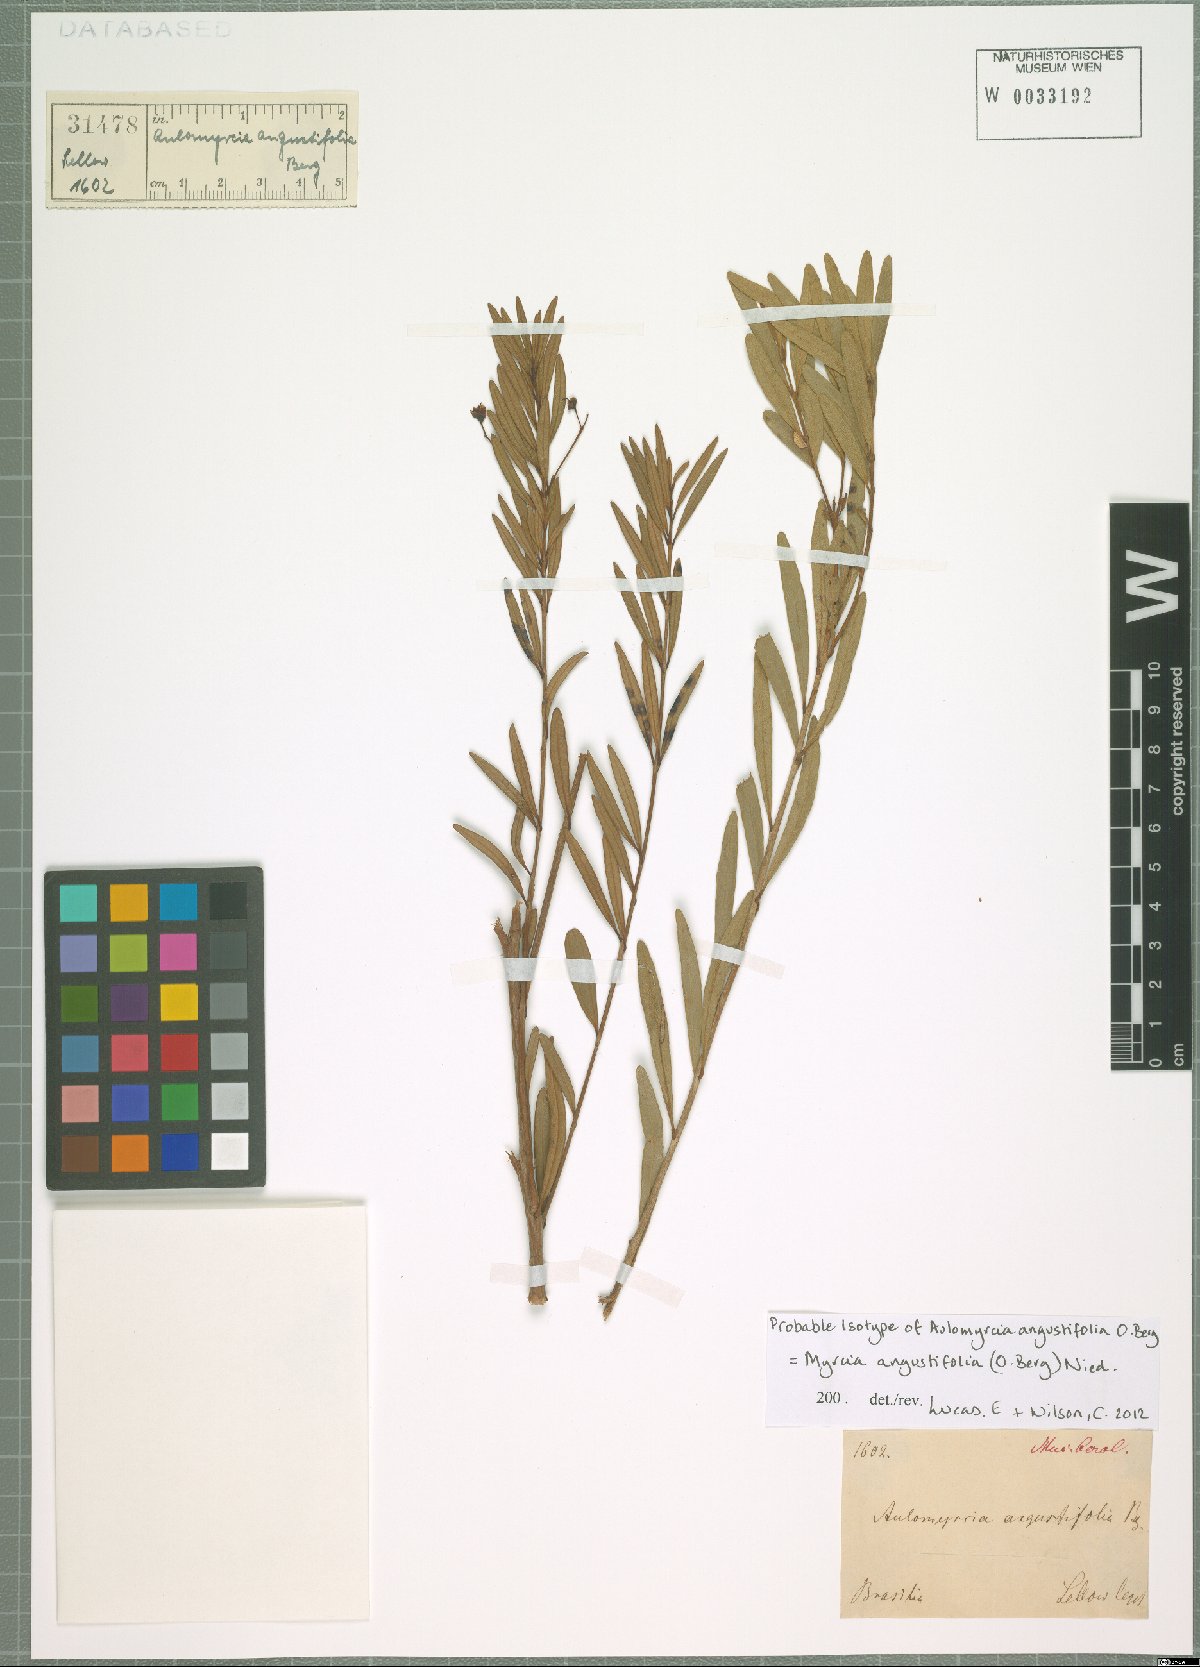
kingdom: Plantae
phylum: Tracheophyta
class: Magnoliopsida
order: Myrtales
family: Myrtaceae
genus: Myrcia
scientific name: Myrcia angustifolia
